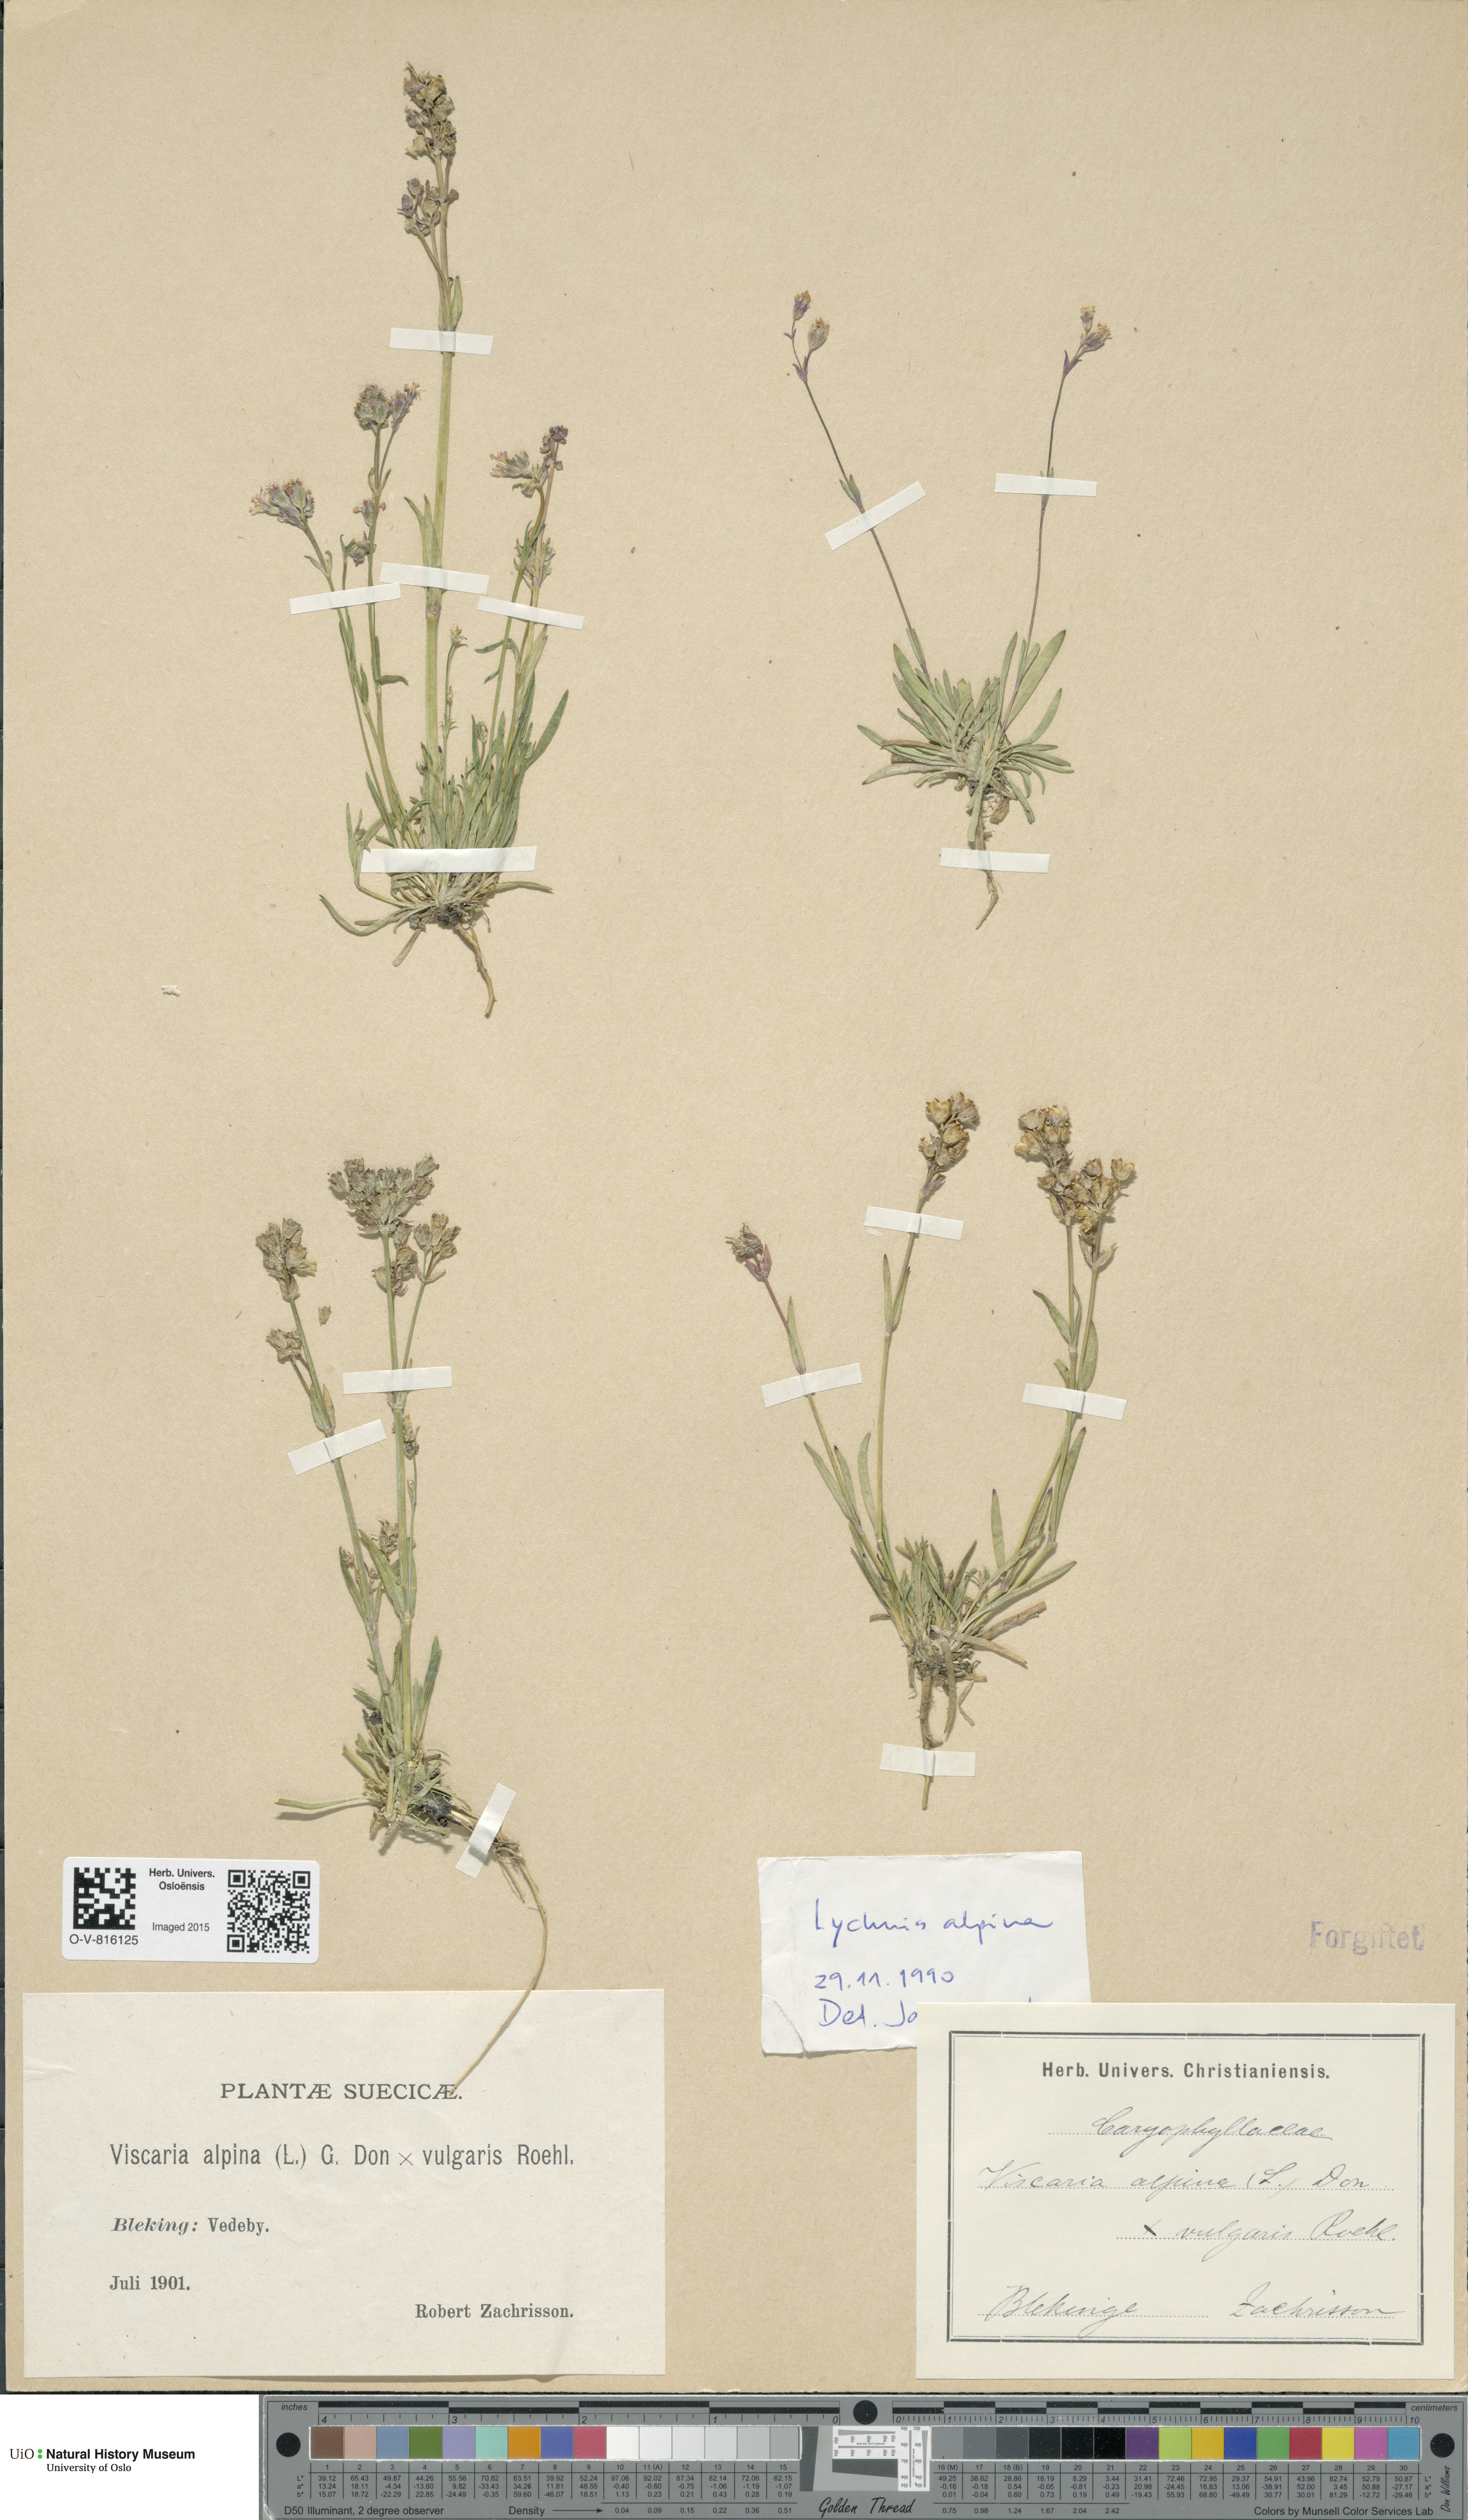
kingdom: Plantae
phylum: Tracheophyta
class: Magnoliopsida
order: Caryophyllales
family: Caryophyllaceae
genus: Viscaria
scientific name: Viscaria
